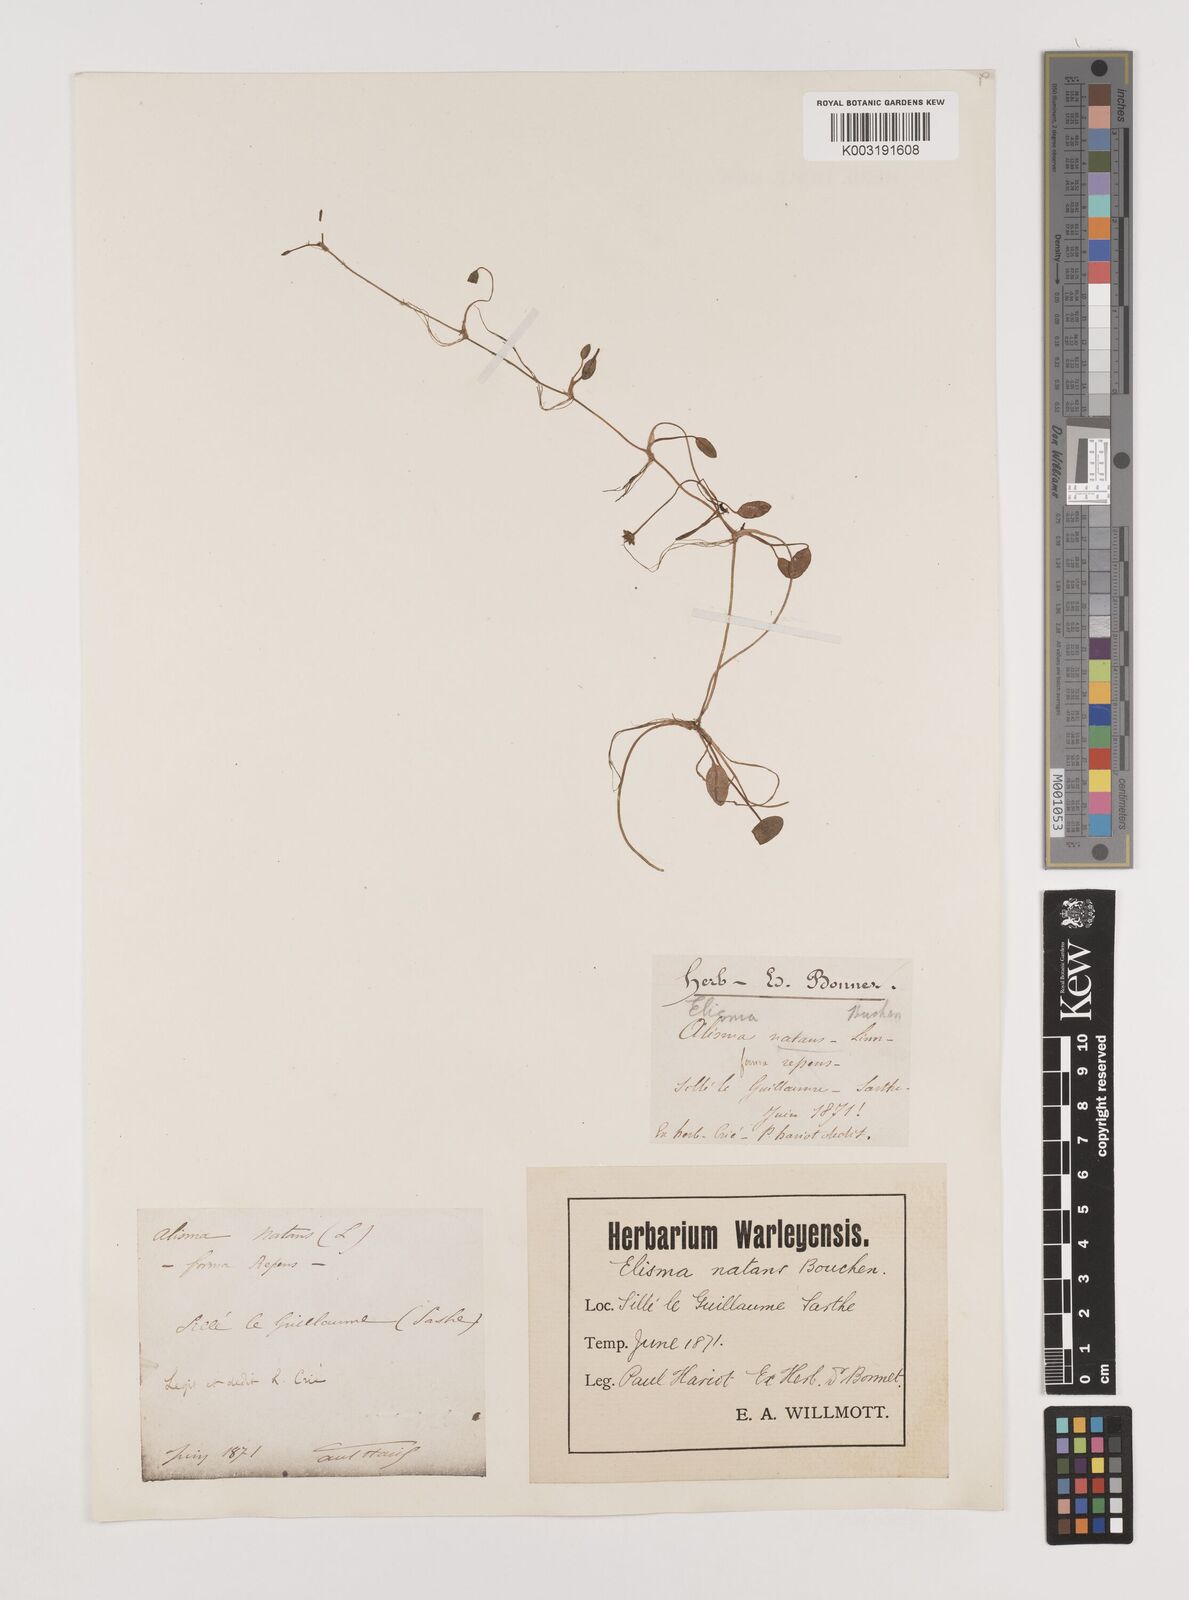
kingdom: Plantae
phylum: Tracheophyta
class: Liliopsida
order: Alismatales
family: Alismataceae
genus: Luronium
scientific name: Luronium natans
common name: Floating water-plantain
